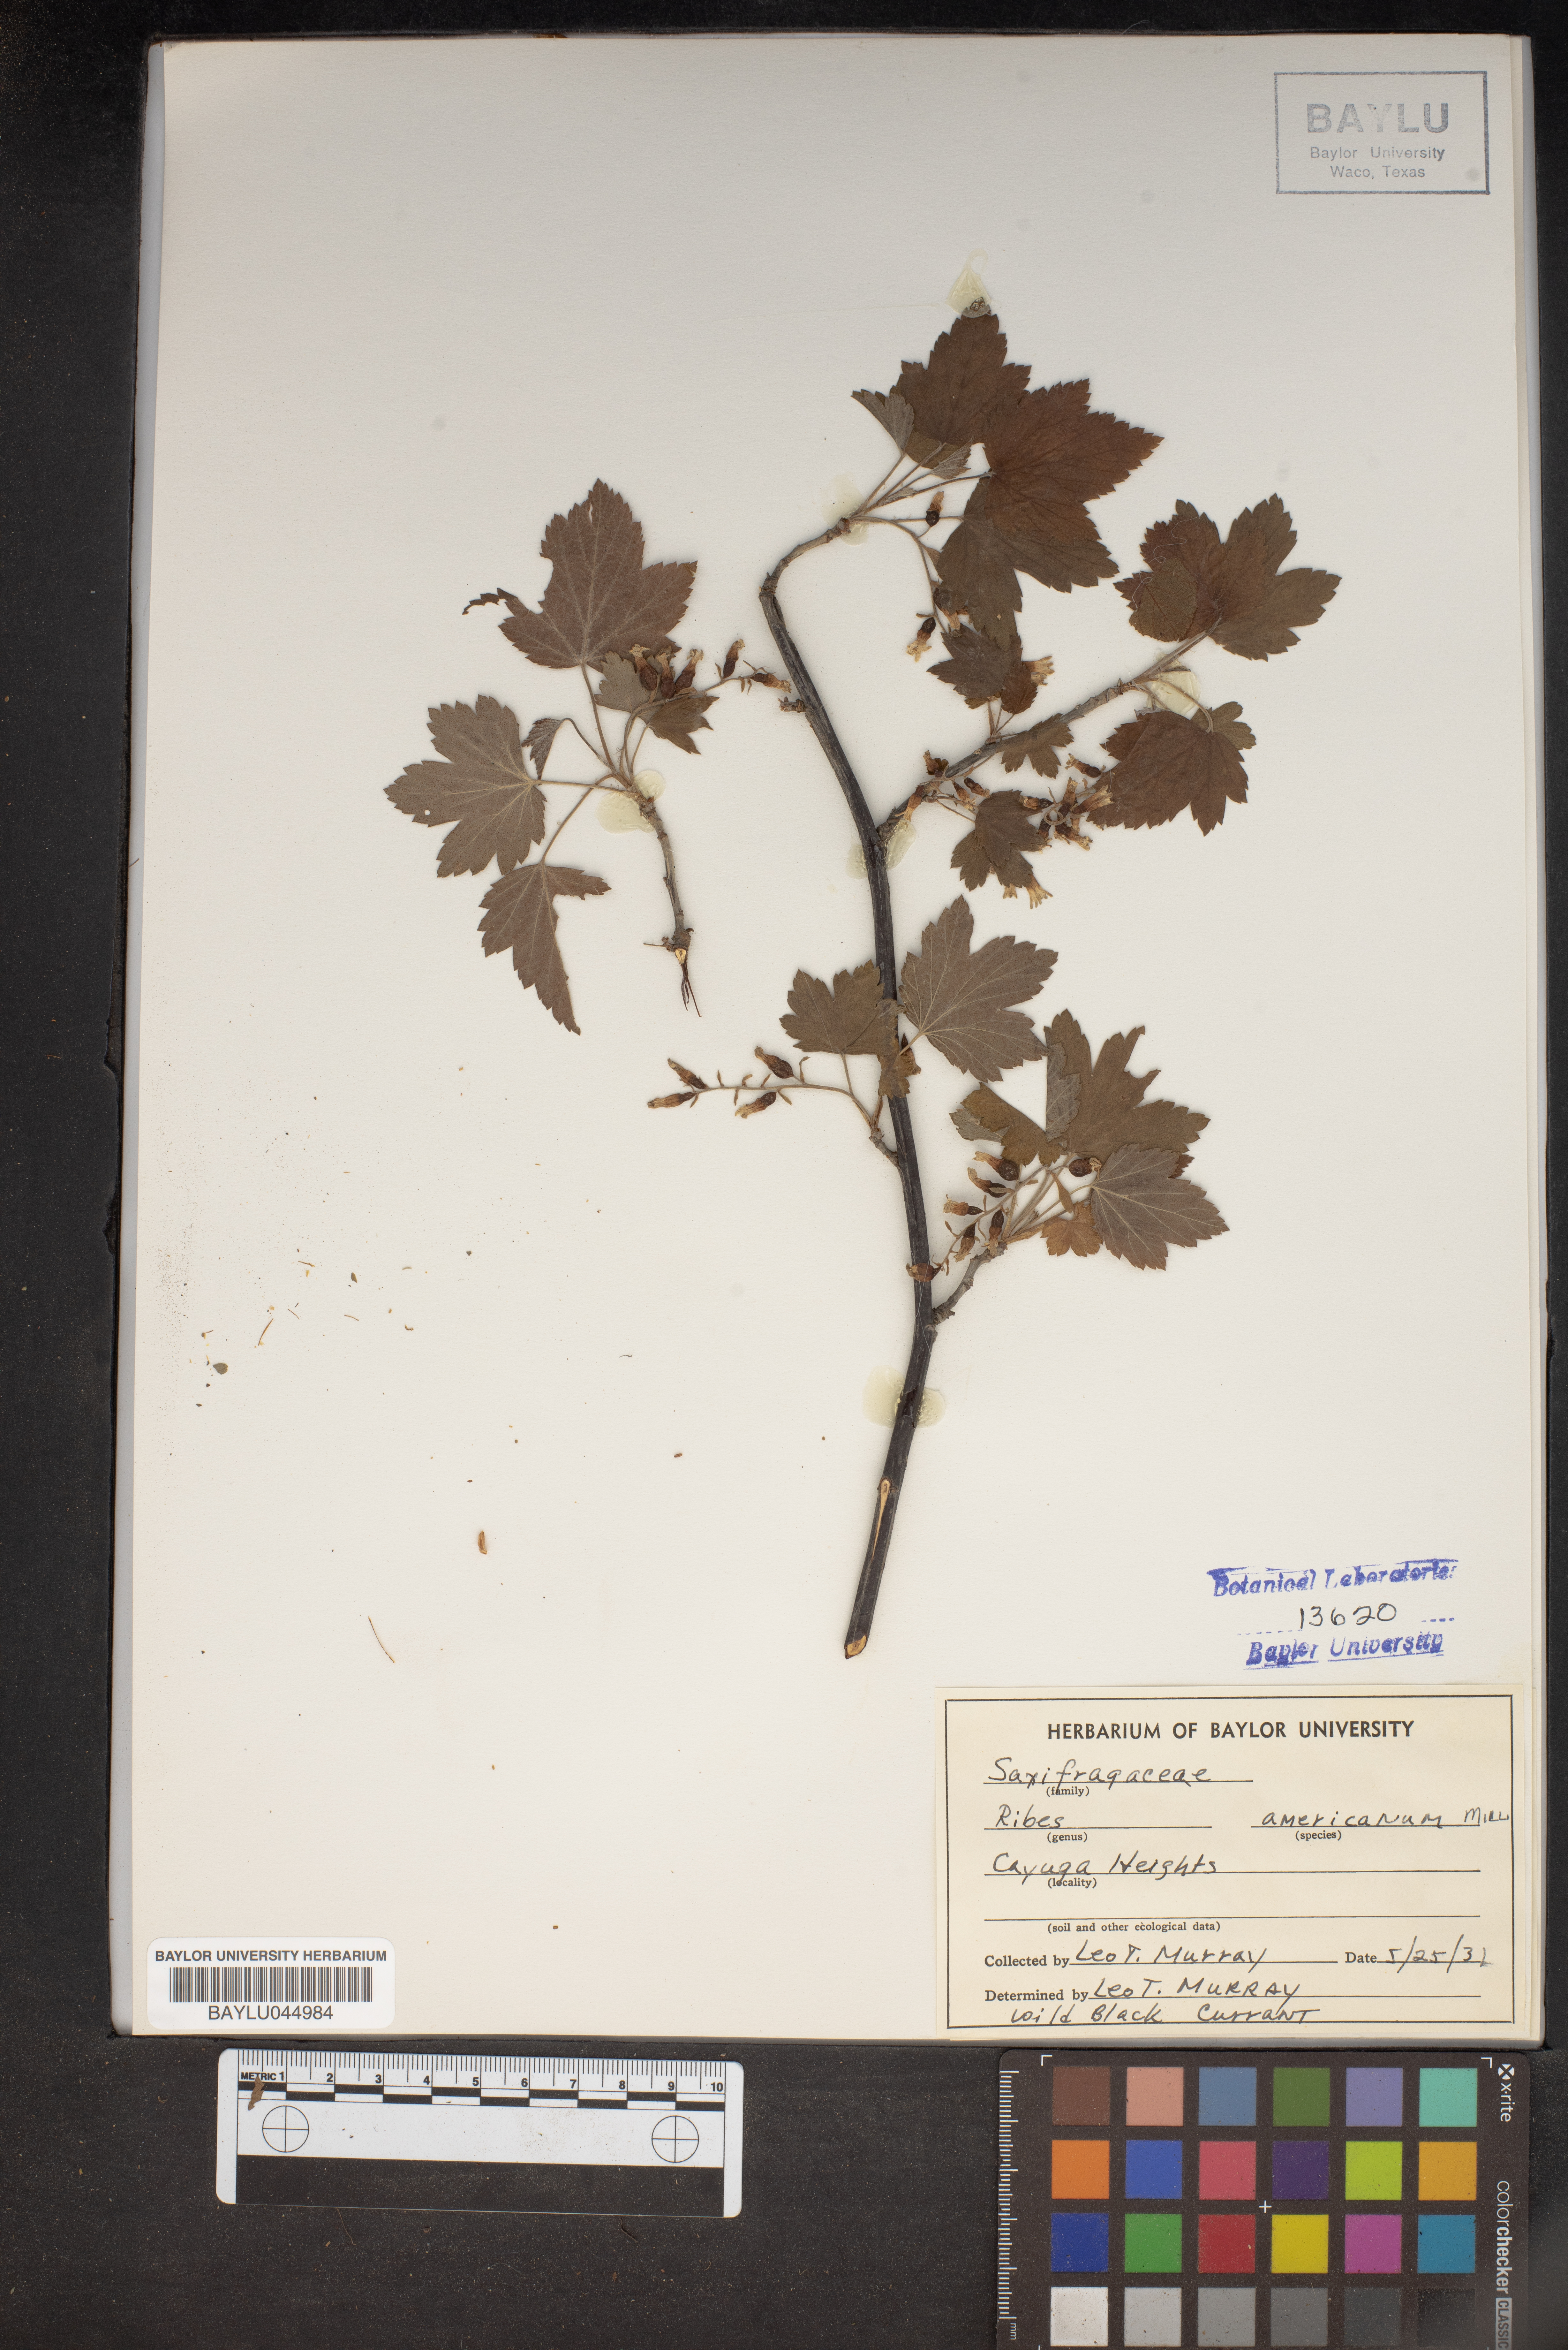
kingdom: Plantae
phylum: Tracheophyta
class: Magnoliopsida
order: Saxifragales
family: Grossulariaceae
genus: Ribes
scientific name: Ribes americanum
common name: American black currant
